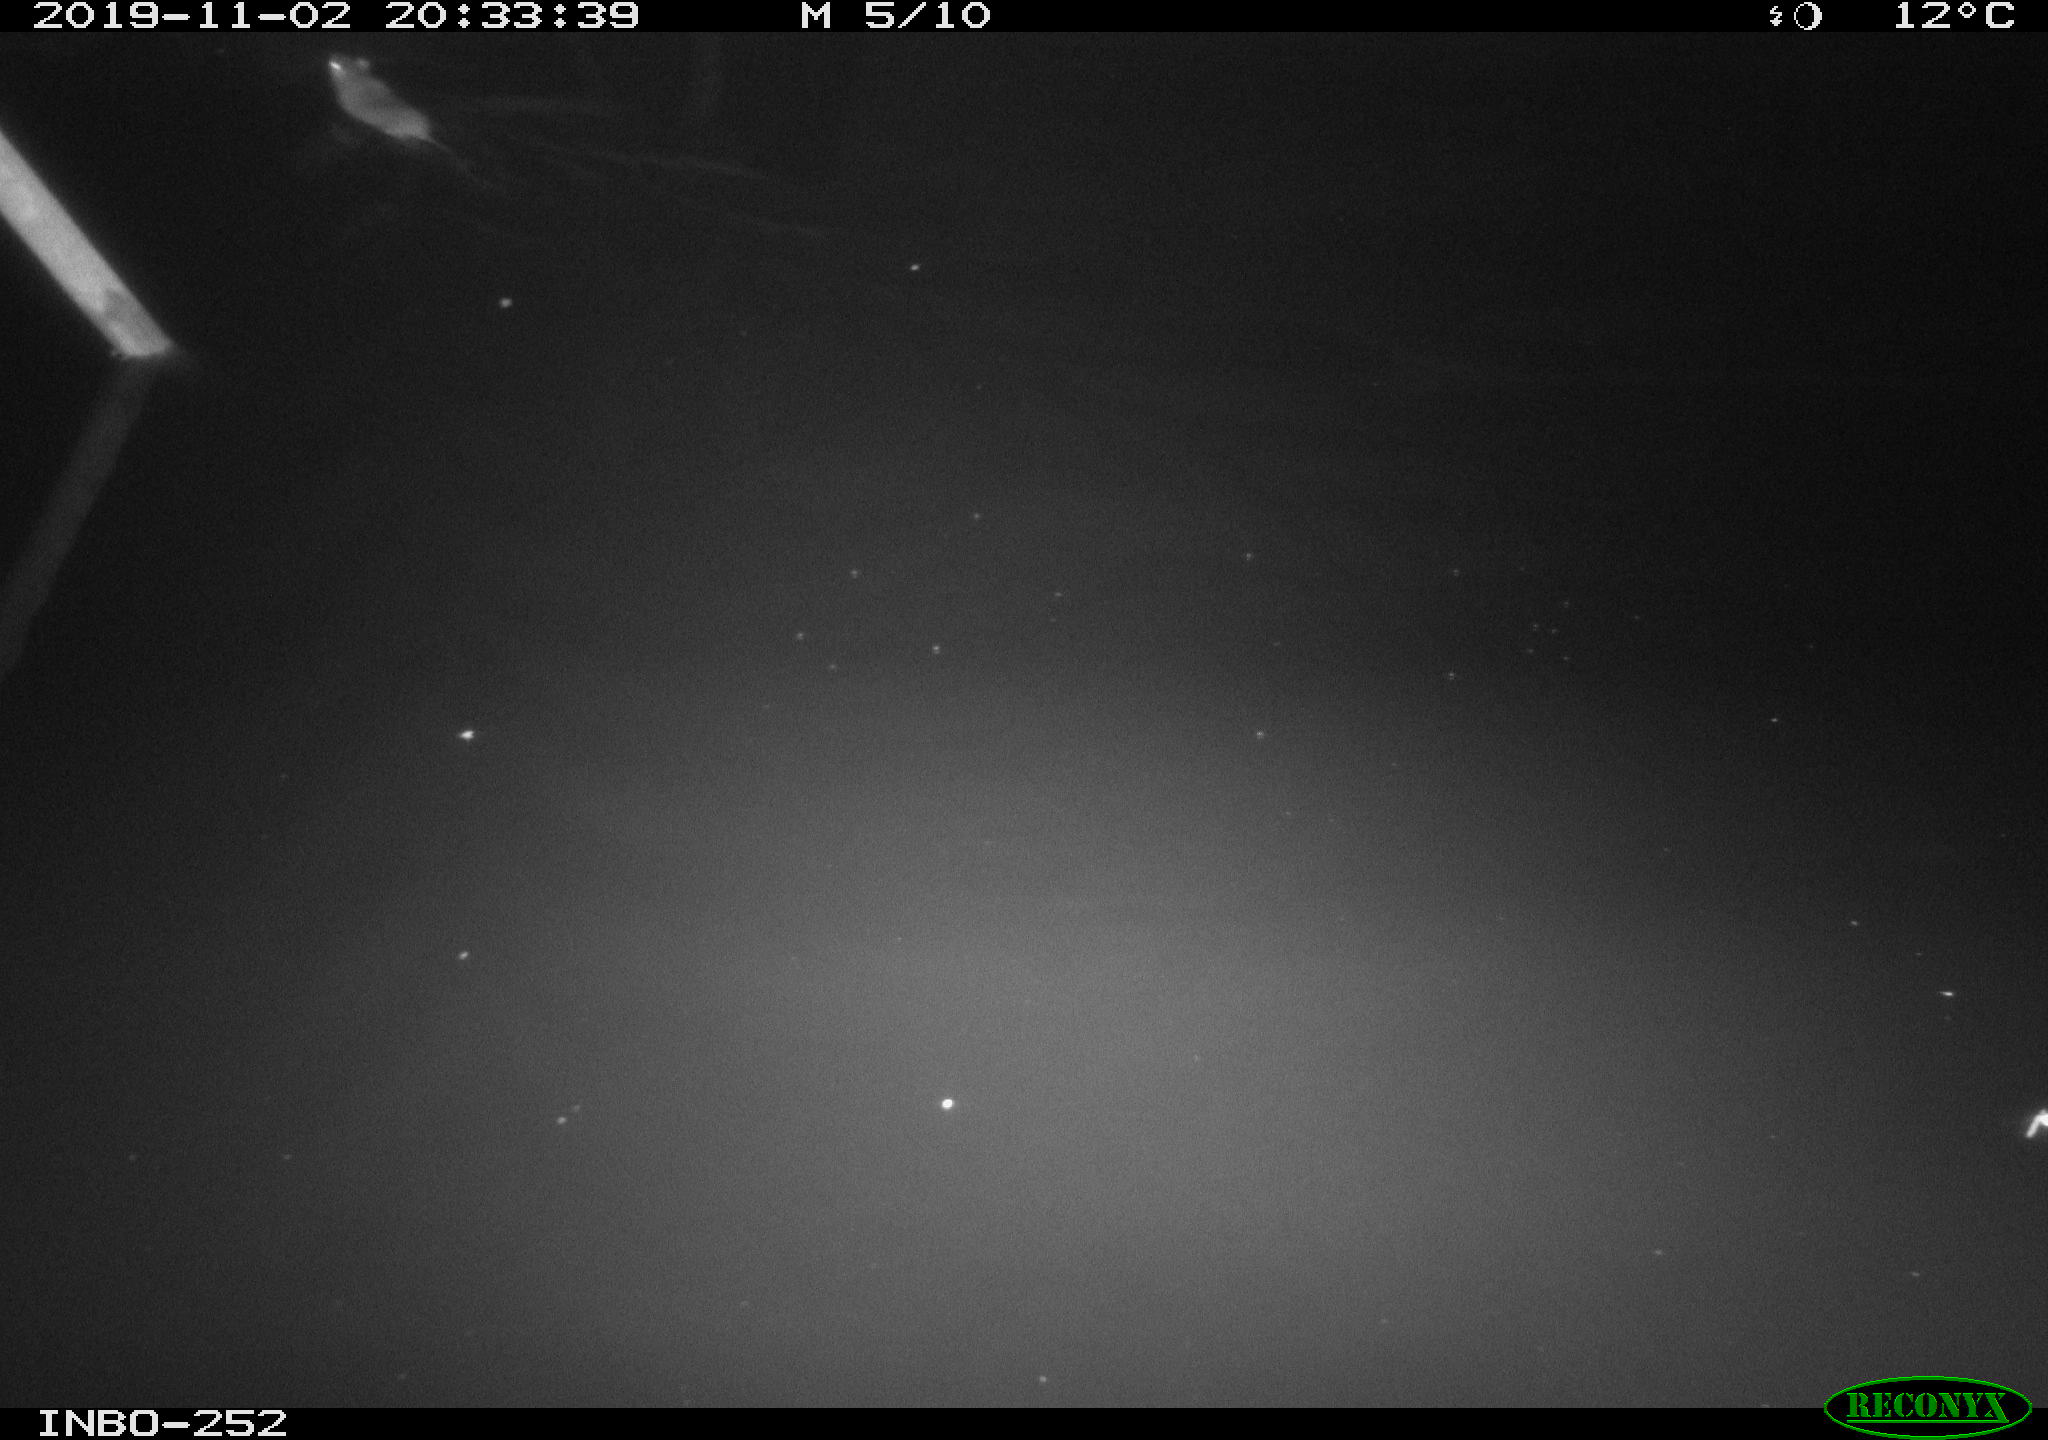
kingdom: Animalia
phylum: Chordata
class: Mammalia
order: Rodentia
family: Muridae
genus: Rattus
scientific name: Rattus norvegicus
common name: Brown rat
